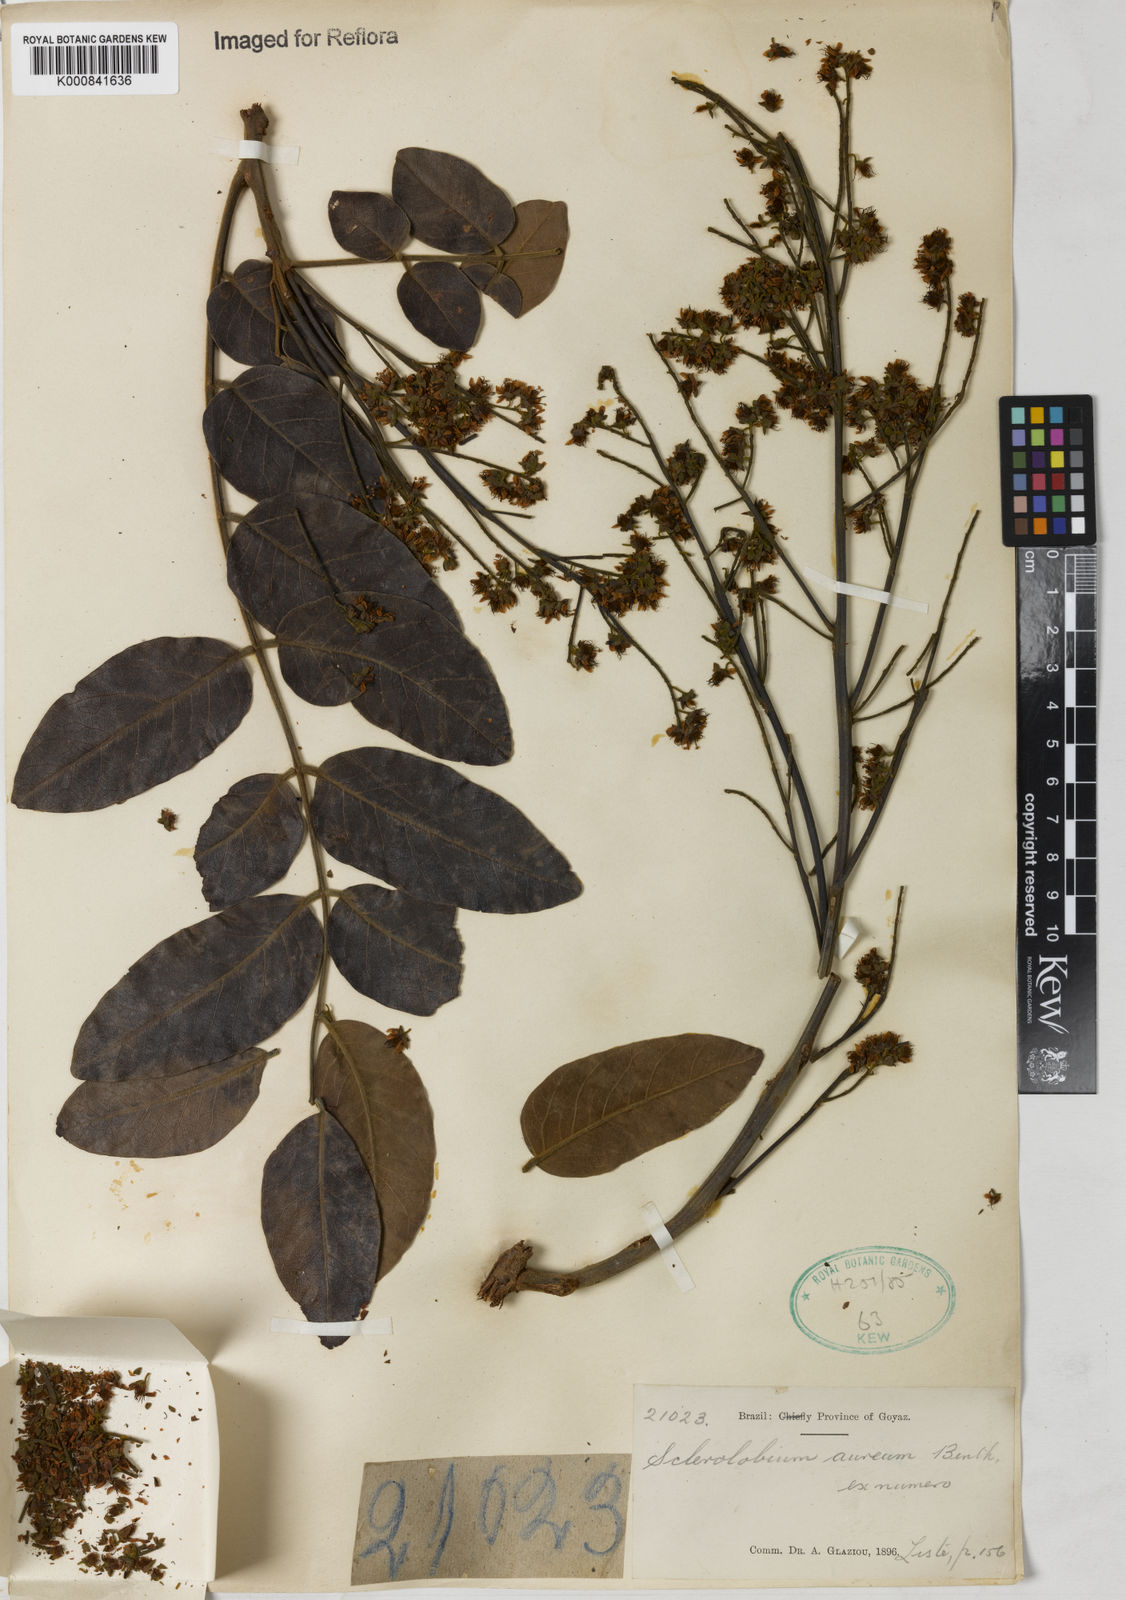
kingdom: Plantae
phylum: Tracheophyta
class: Magnoliopsida
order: Fabales
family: Fabaceae
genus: Tachigali
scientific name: Tachigali aurea
